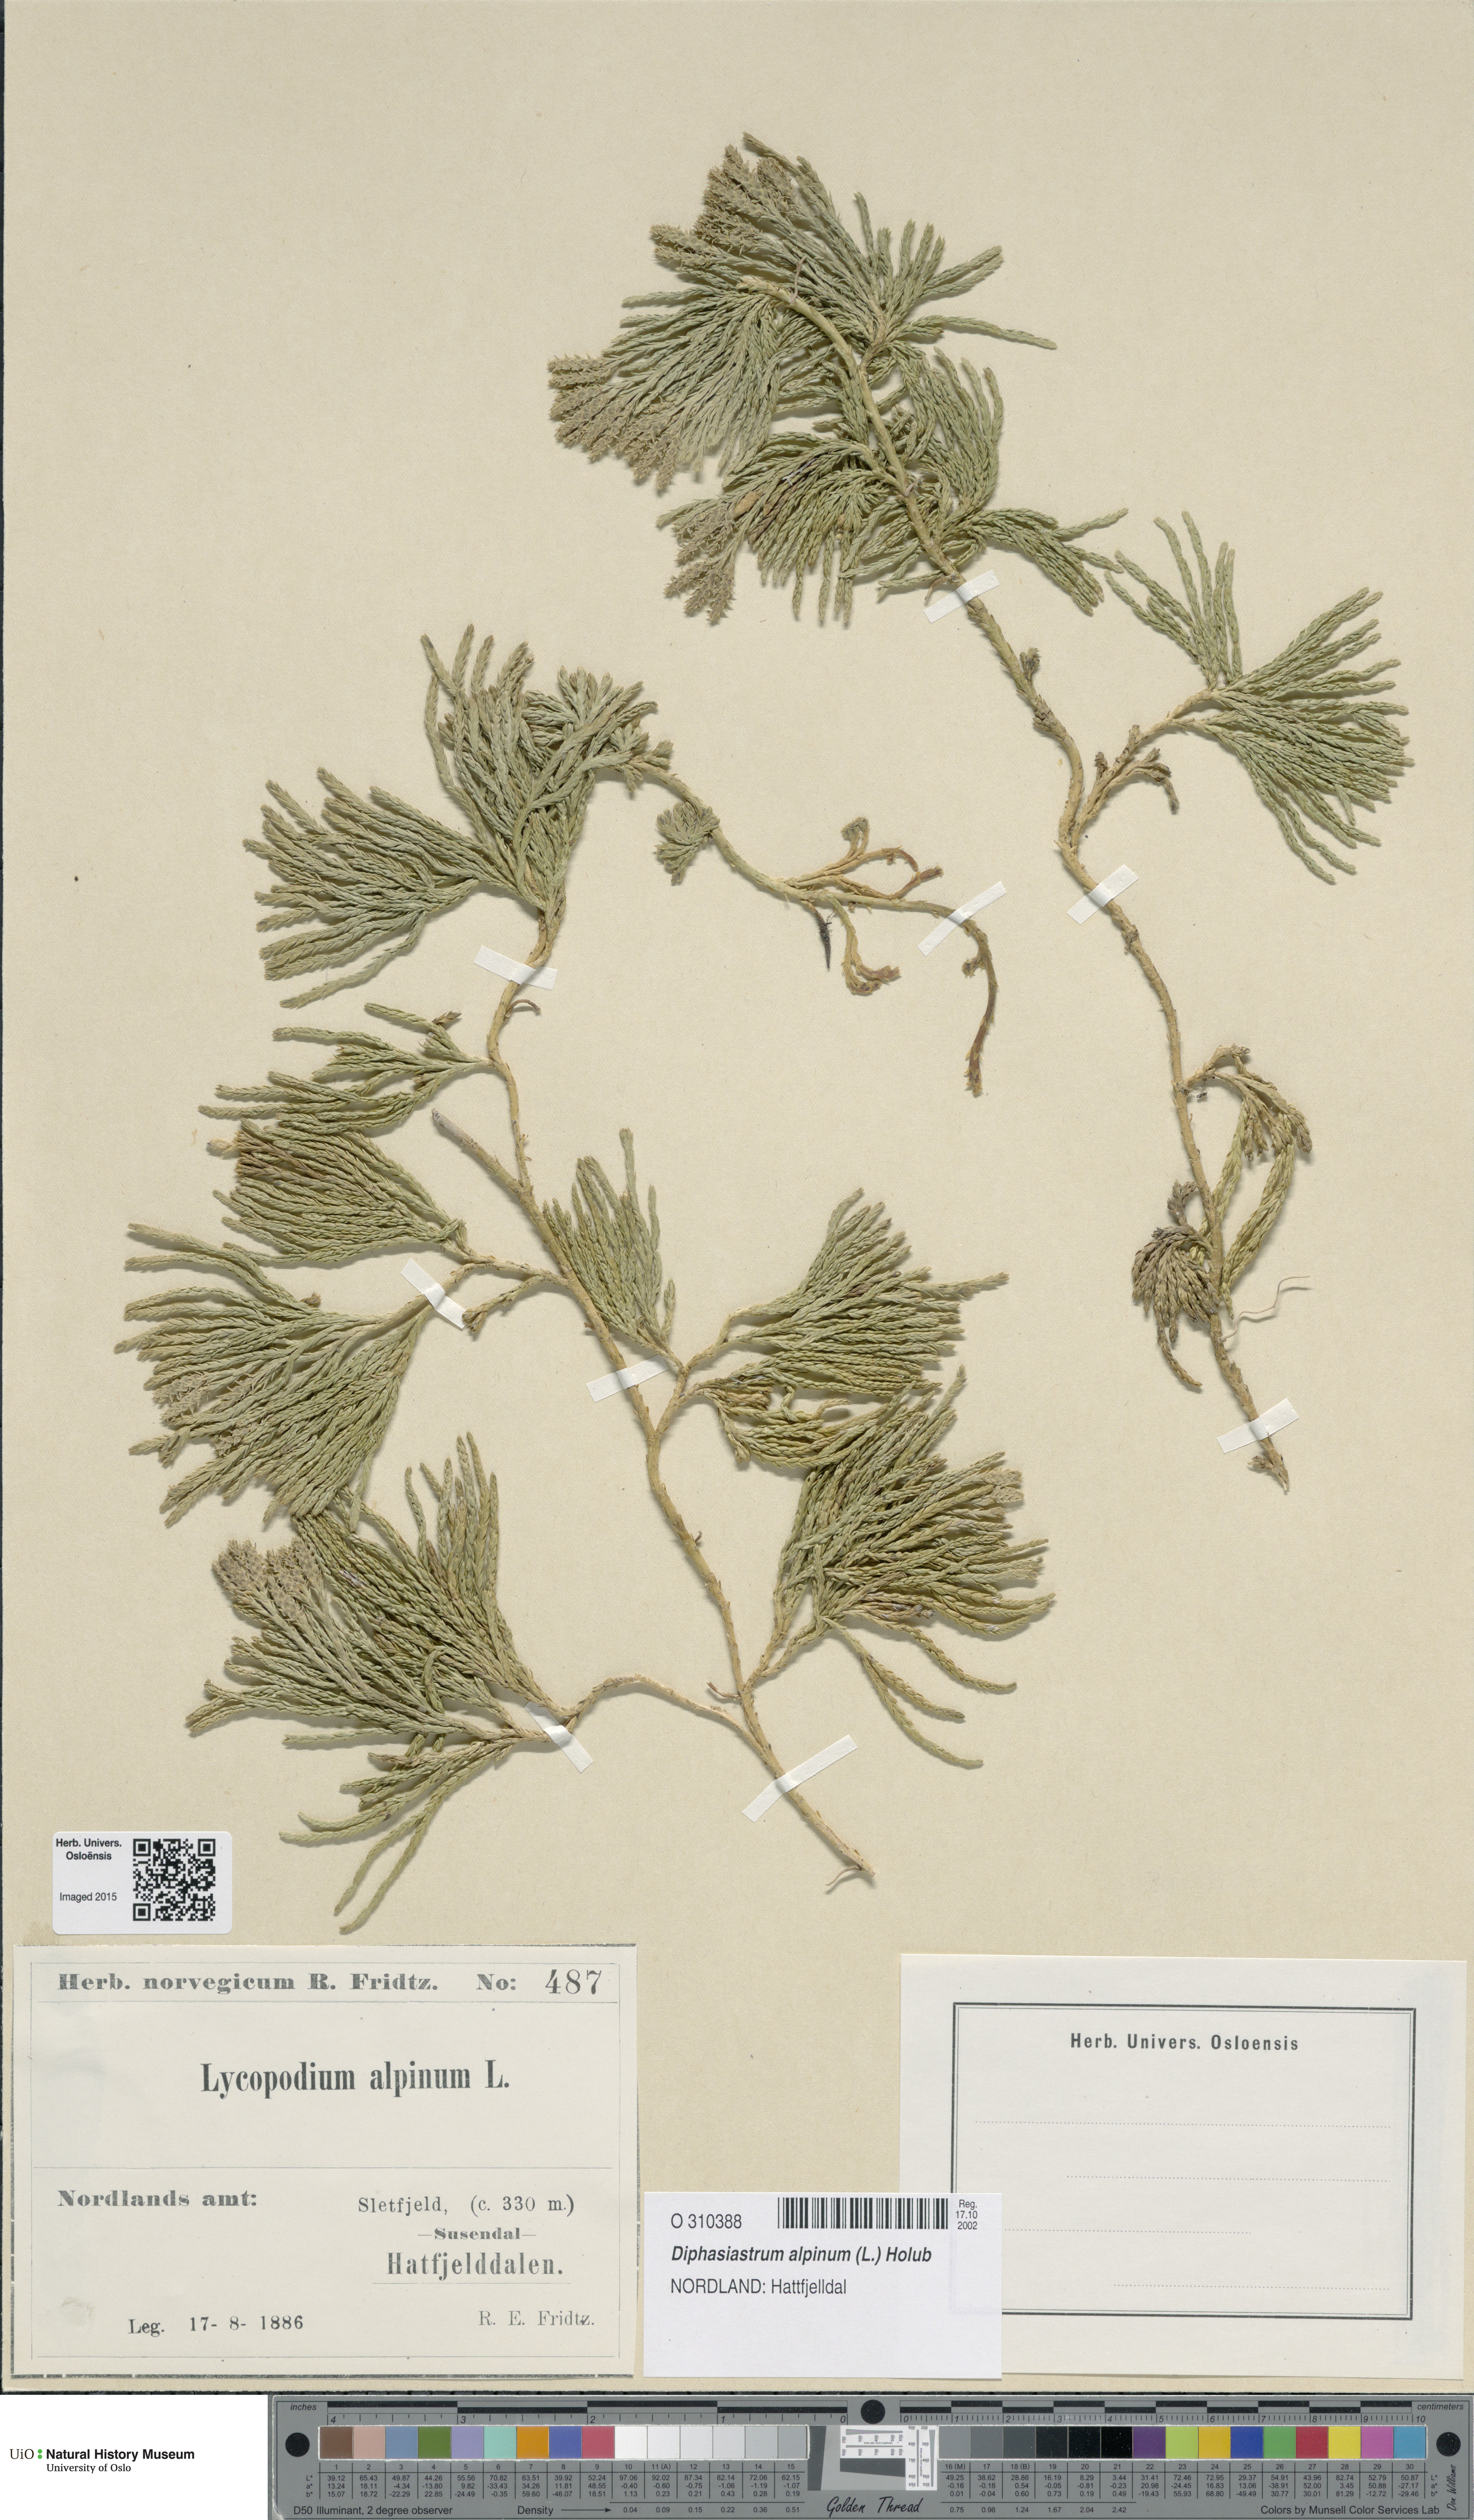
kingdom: Plantae
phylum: Tracheophyta
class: Lycopodiopsida
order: Lycopodiales
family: Lycopodiaceae
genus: Diphasiastrum
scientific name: Diphasiastrum alpinum
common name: Alpine clubmoss
